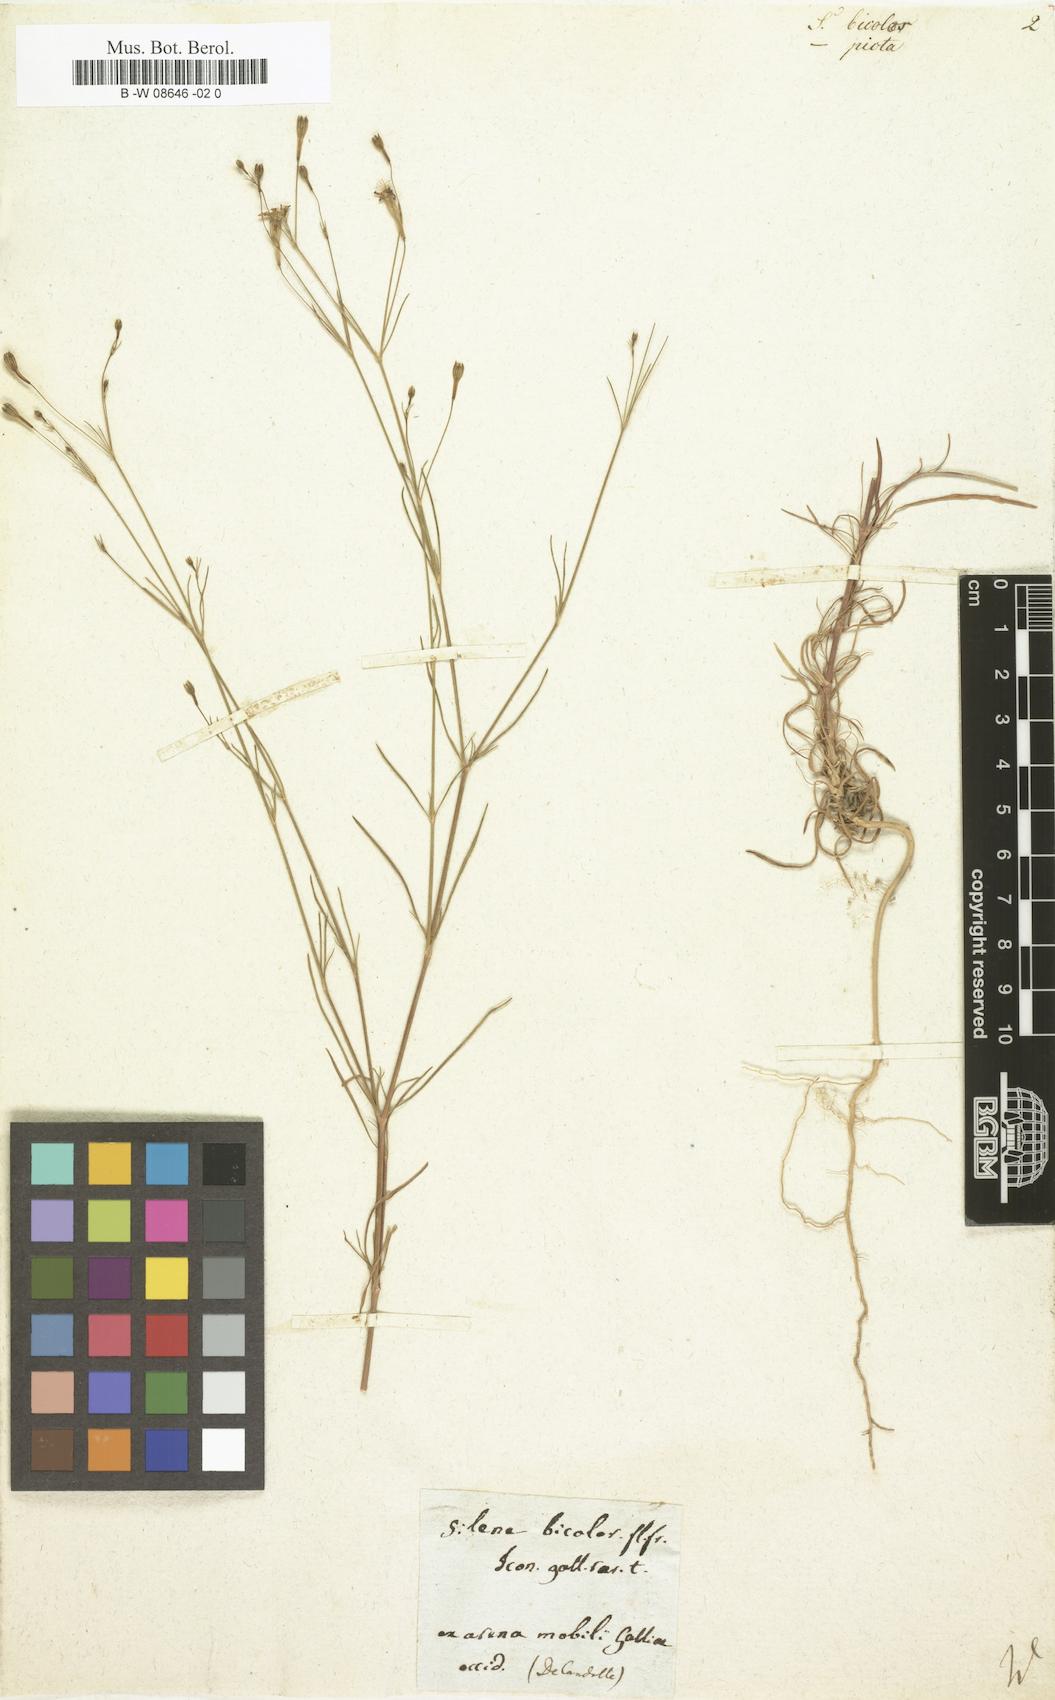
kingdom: Plantae
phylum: Tracheophyta
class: Magnoliopsida
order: Caryophyllales
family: Caryophyllaceae
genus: Silene
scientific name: Silene
